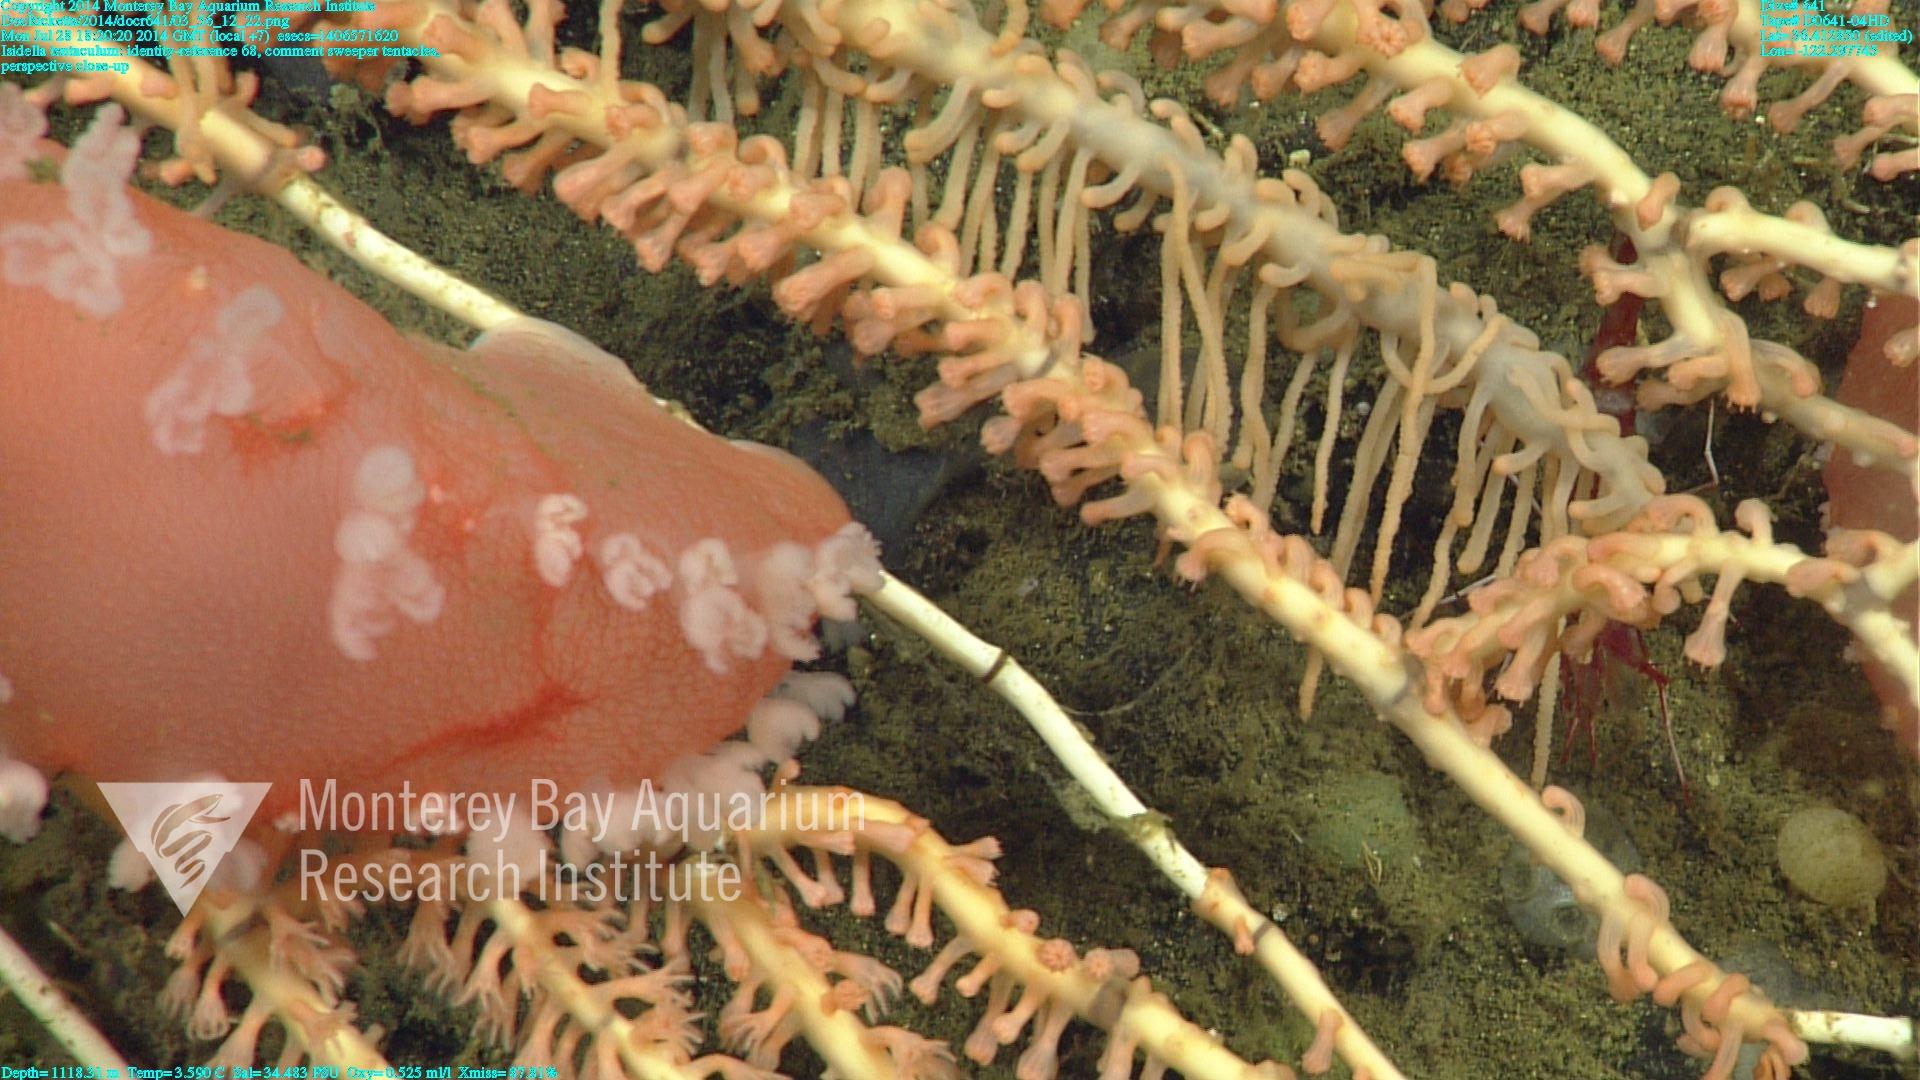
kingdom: Animalia
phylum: Cnidaria
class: Anthozoa
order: Scleralcyonacea
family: Keratoisididae
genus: Isidella
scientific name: Isidella tentaculum
